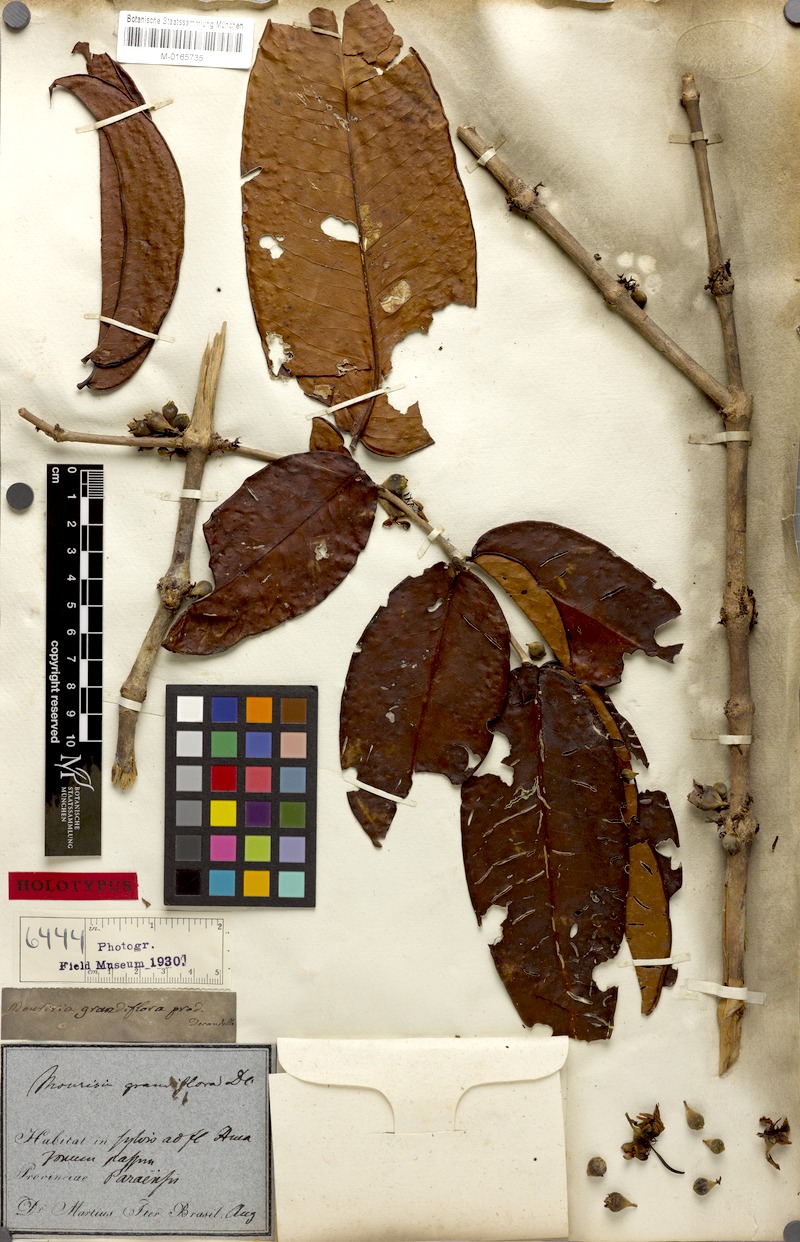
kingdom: Plantae
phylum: Tracheophyta
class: Magnoliopsida
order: Myrtales
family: Melastomataceae
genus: Mouriri
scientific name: Mouriri grandiflora
